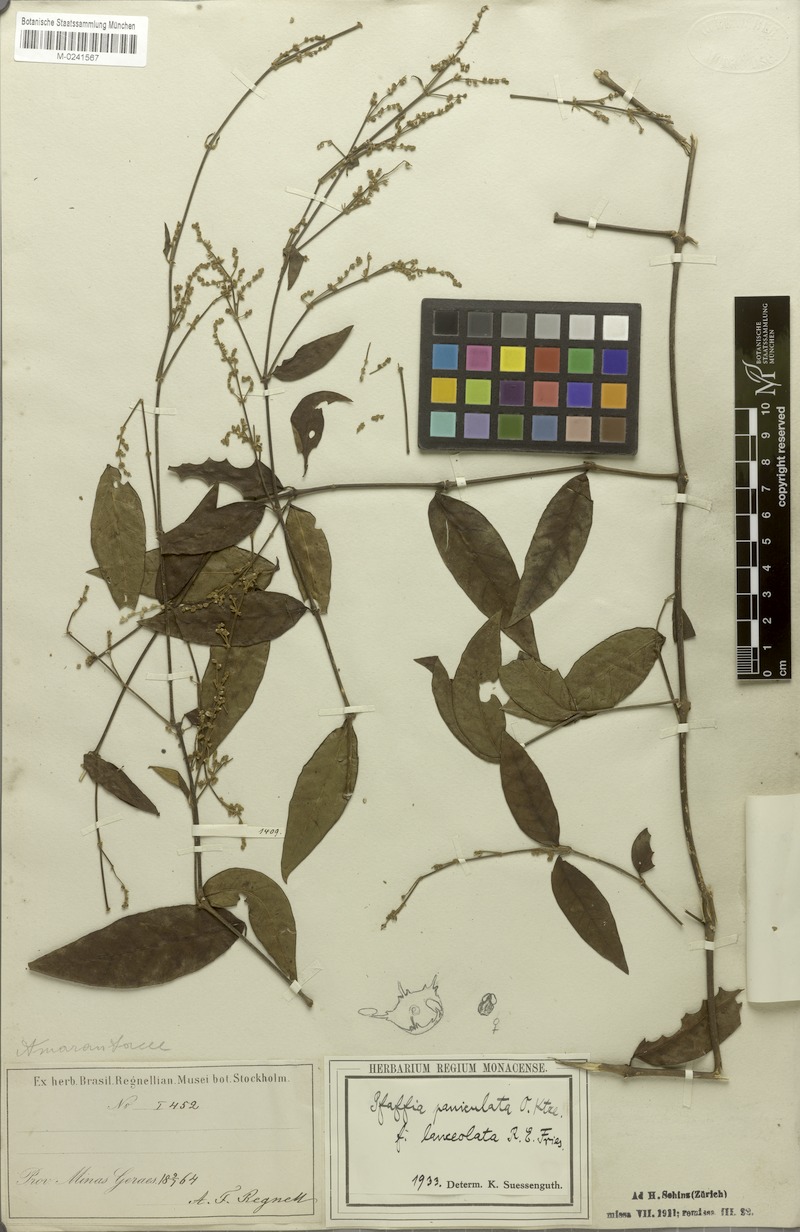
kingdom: Plantae
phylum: Tracheophyta
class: Magnoliopsida
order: Caryophyllales
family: Amaranthaceae
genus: Hebanthe
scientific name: Hebanthe erianthos
